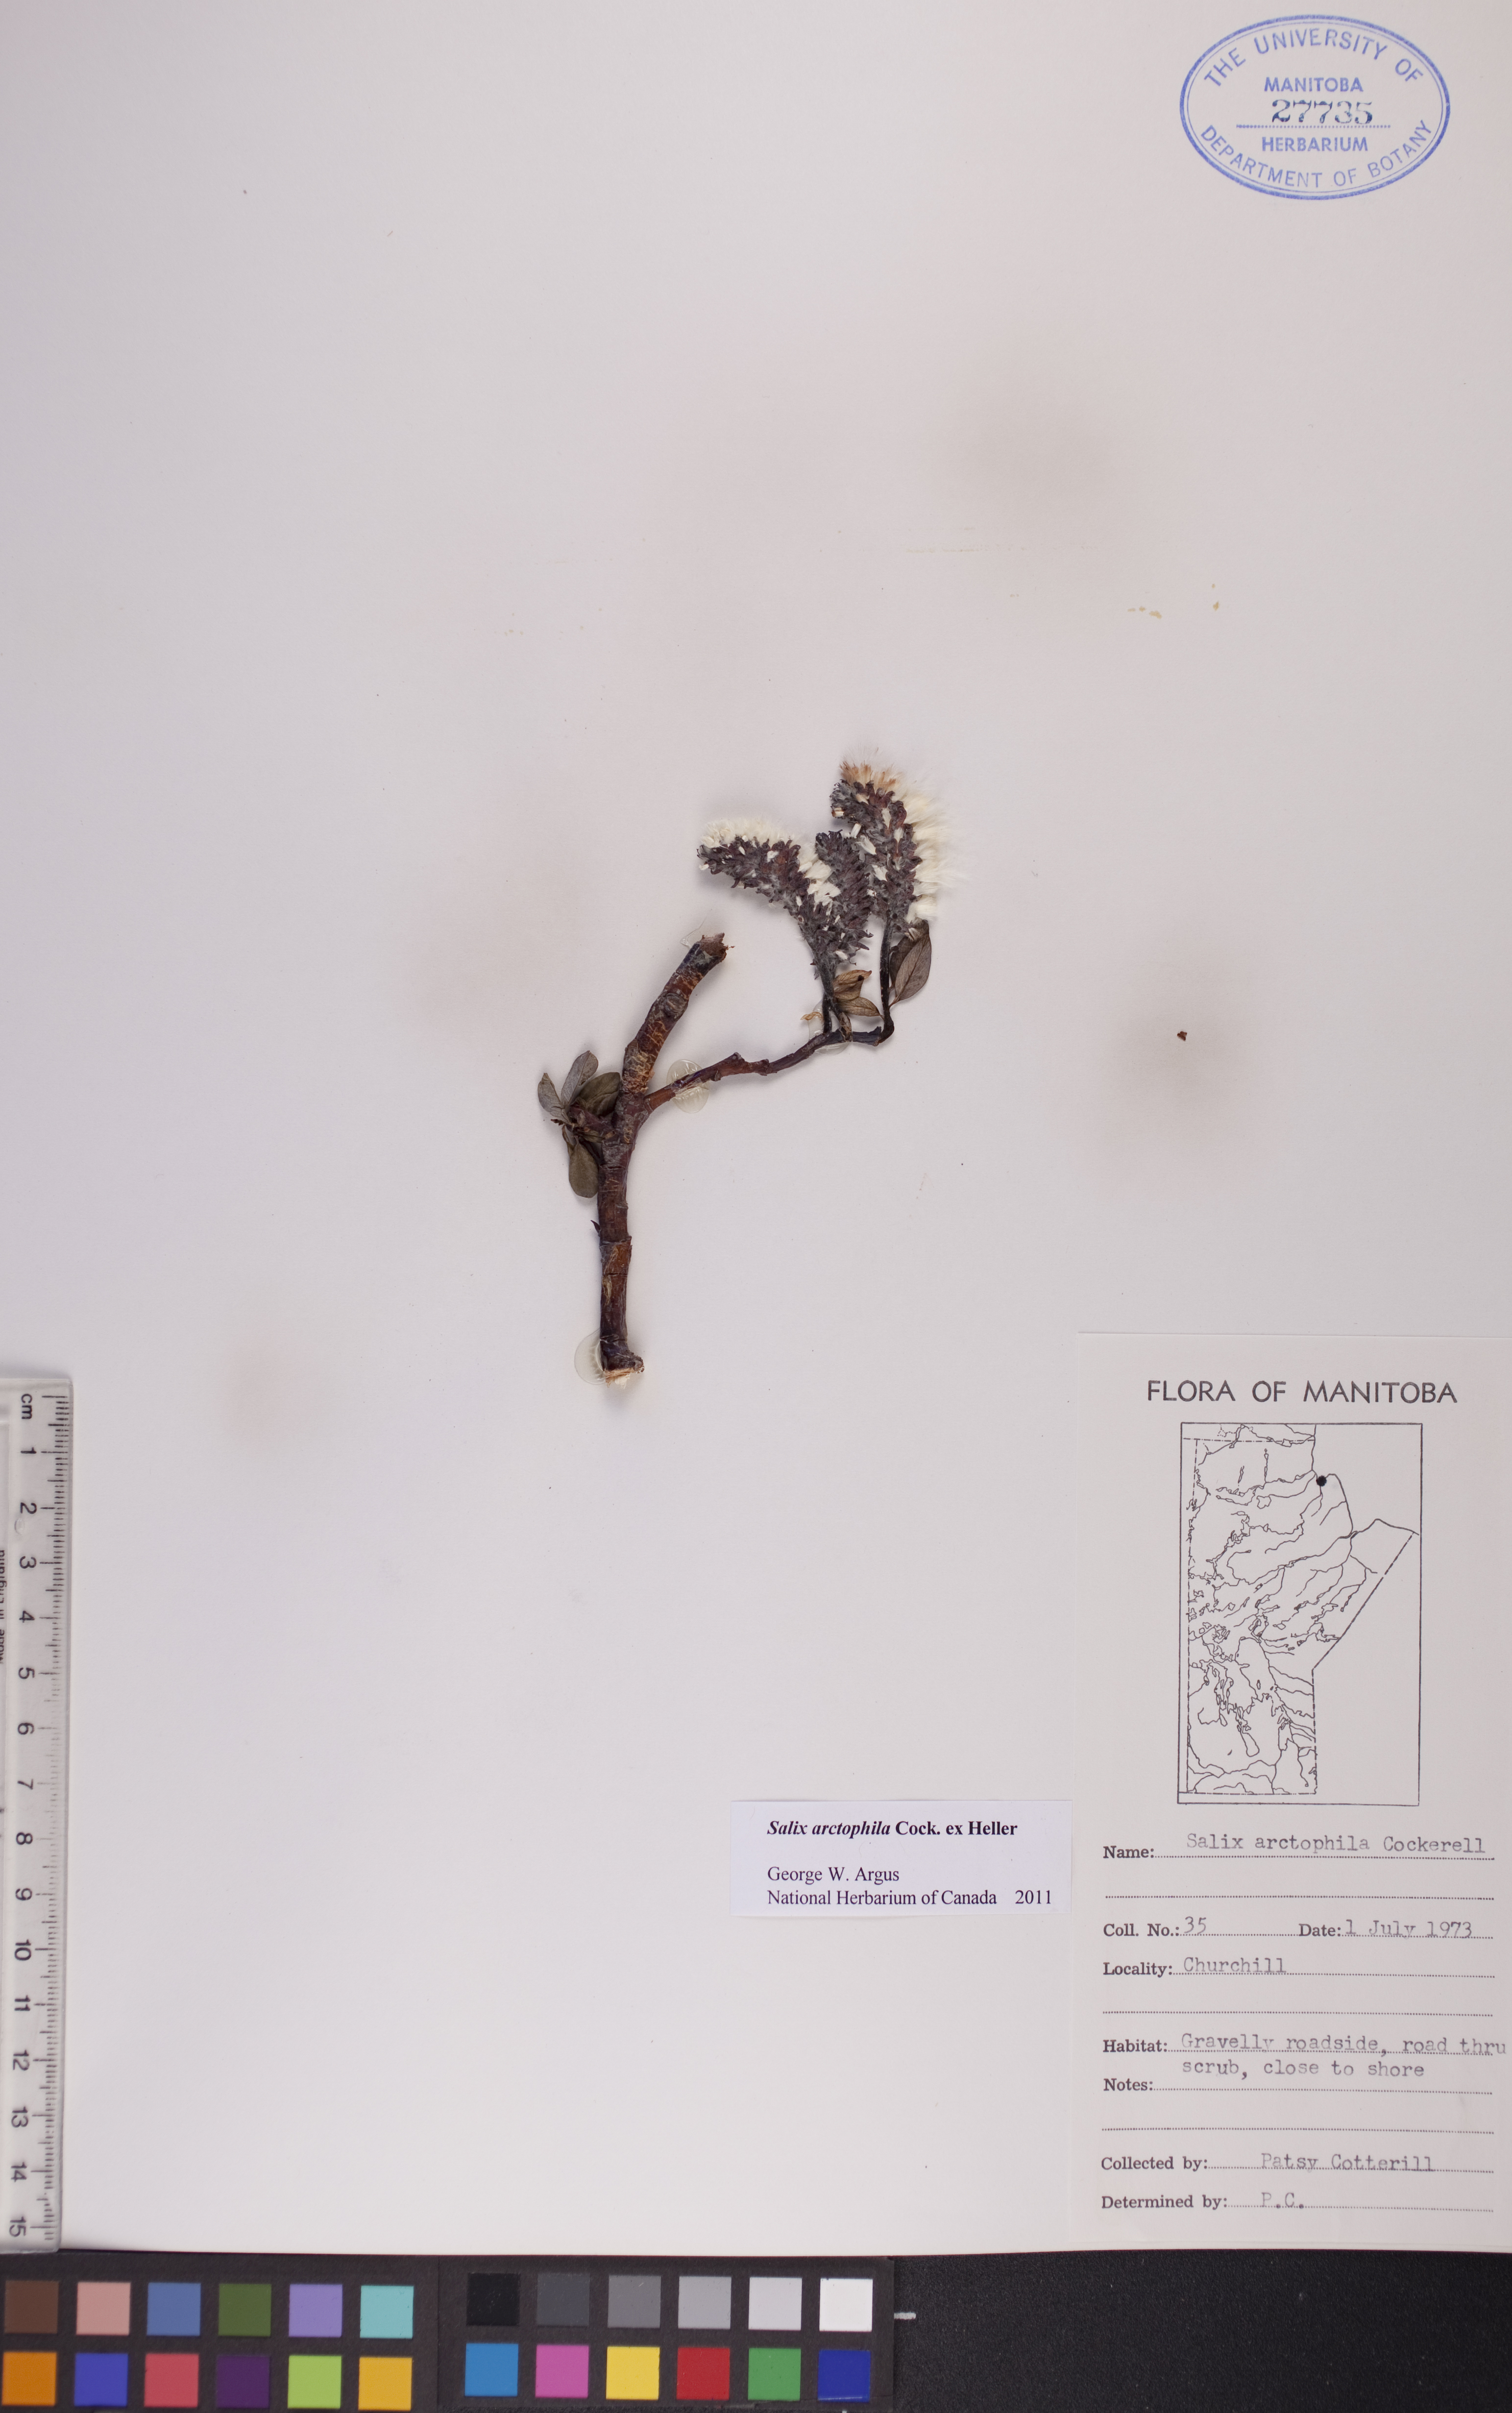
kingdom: Plantae
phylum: Tracheophyta
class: Magnoliopsida
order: Malpighiales
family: Salicaceae
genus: Salix
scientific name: Salix arctophila
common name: Greenland willow
